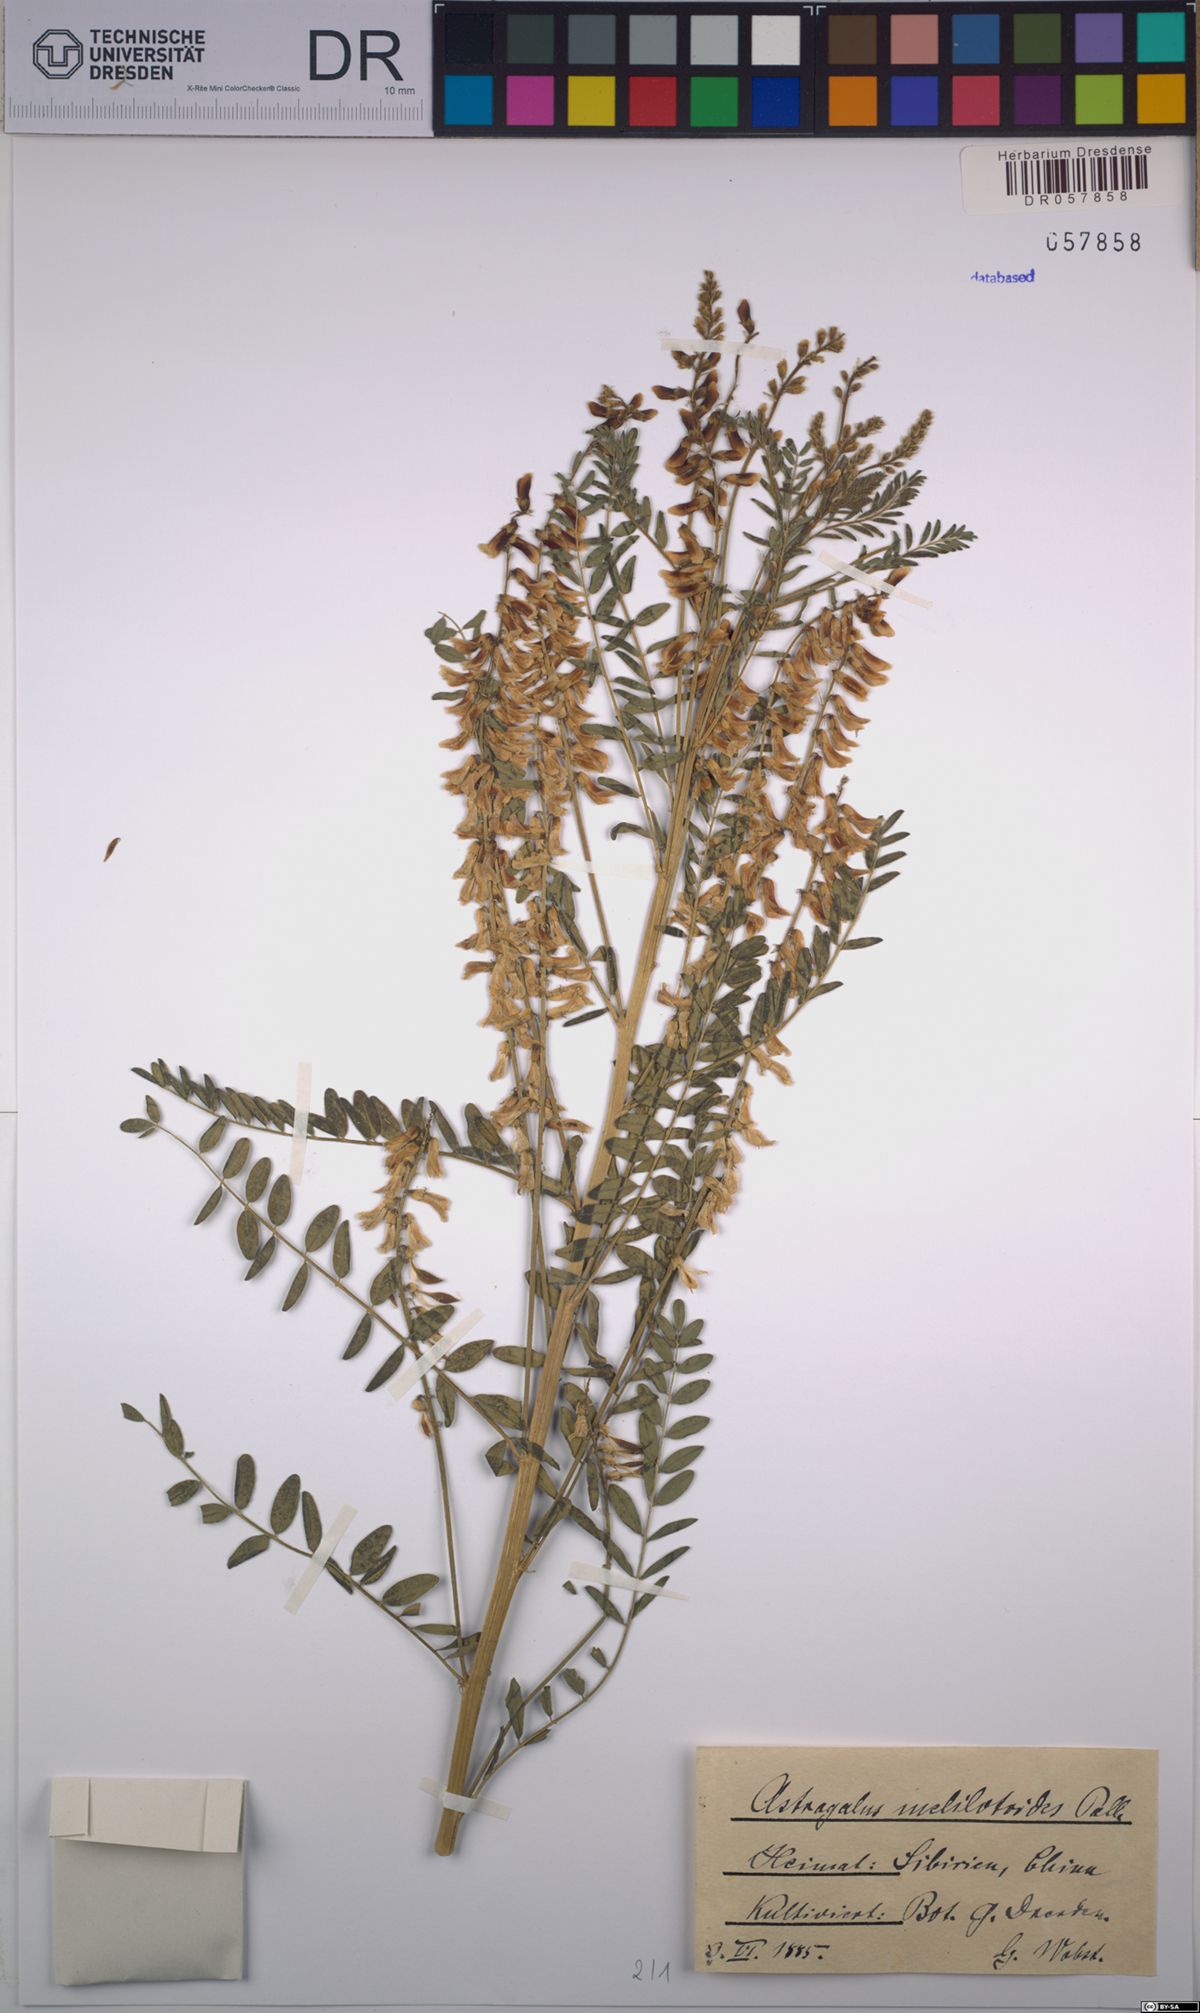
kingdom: Plantae
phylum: Tracheophyta
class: Magnoliopsida
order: Fabales
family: Fabaceae
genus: Astragalus
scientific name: Astragalus melilotoides
